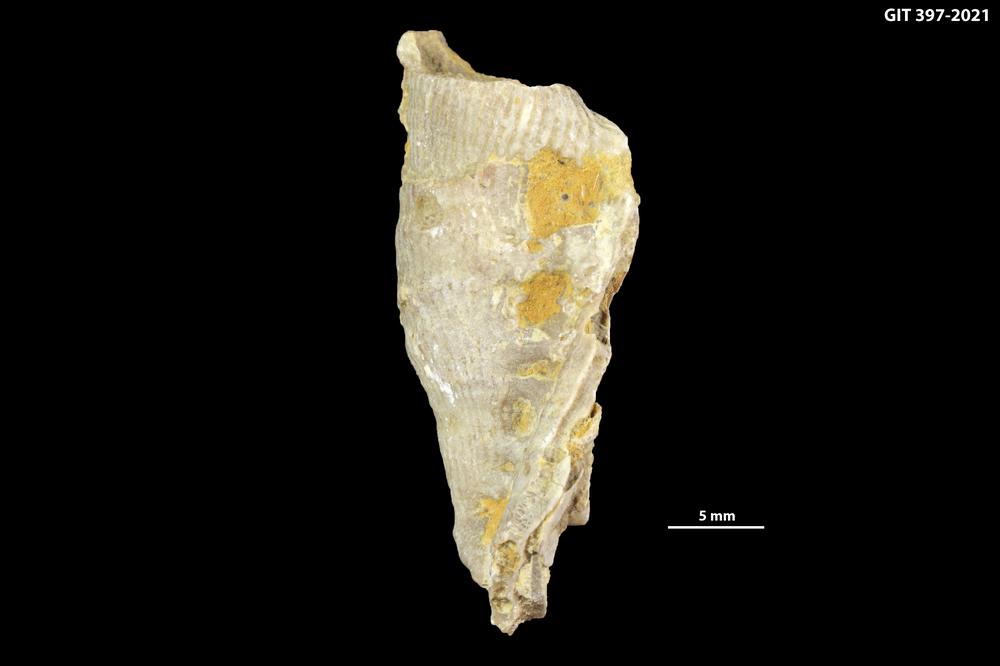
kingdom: Animalia
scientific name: Animalia
